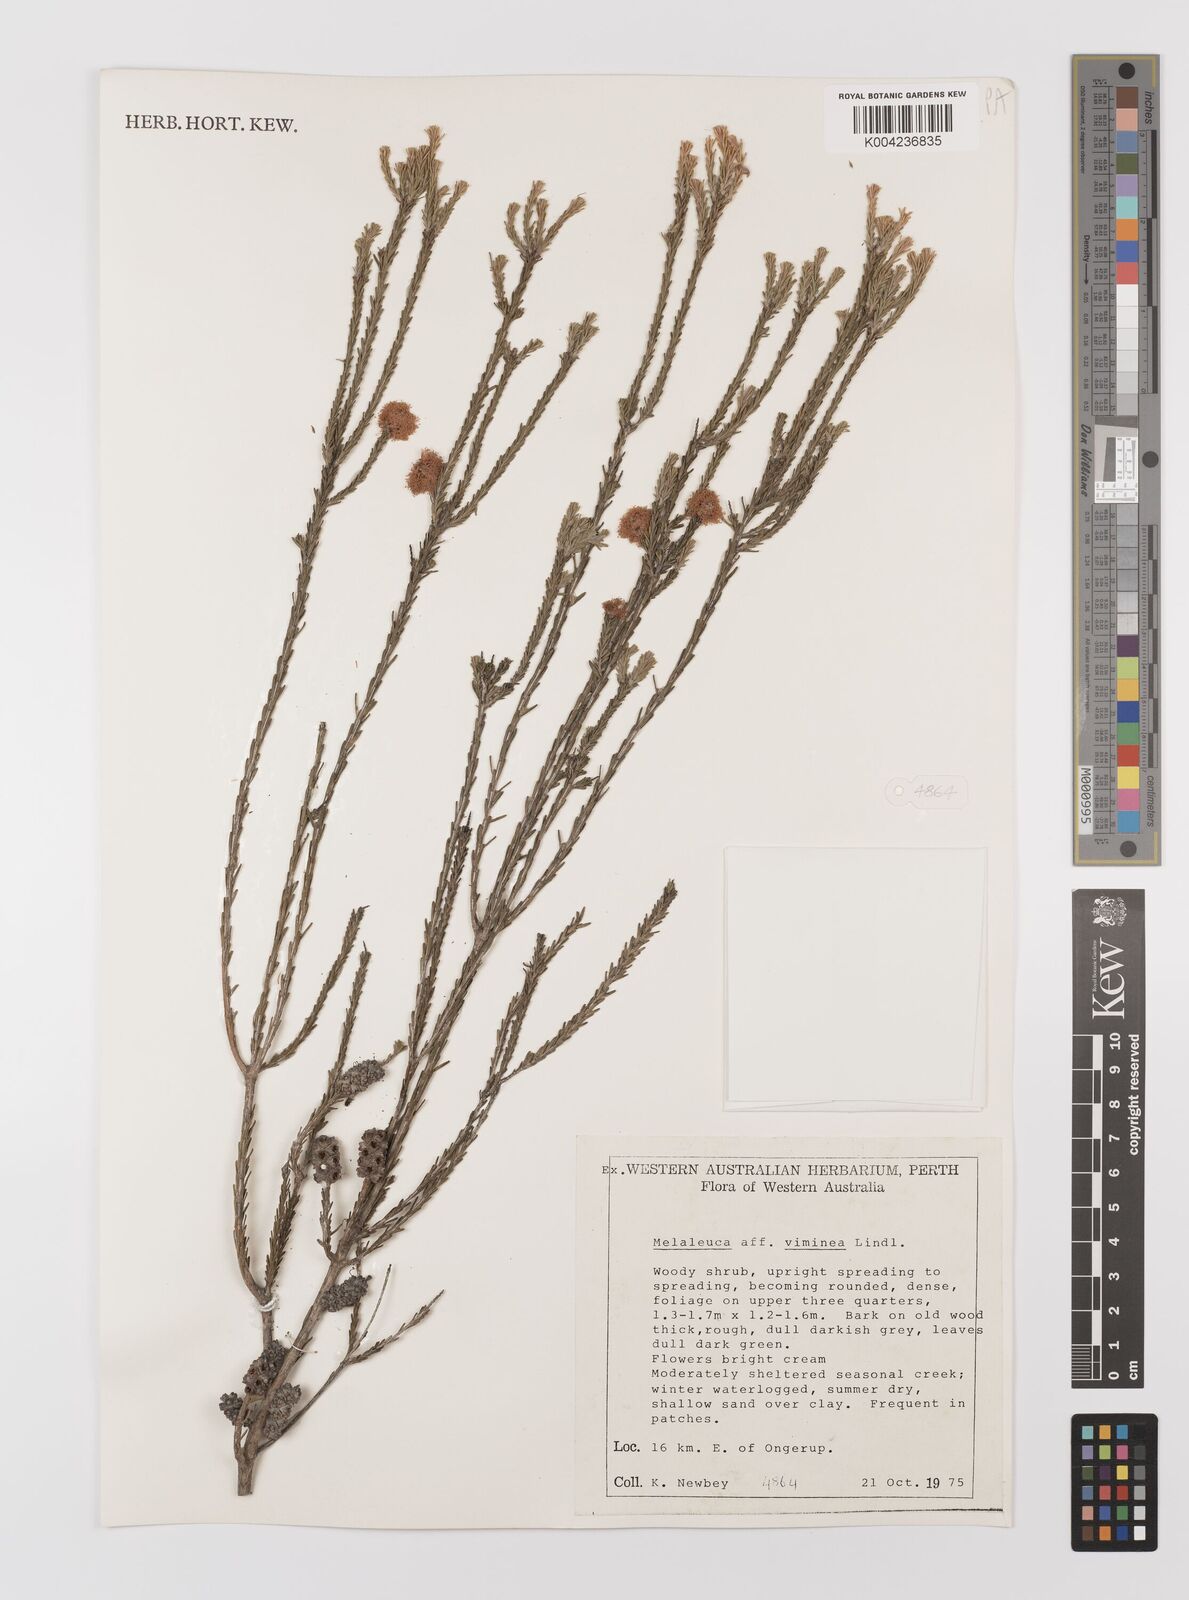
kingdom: Plantae
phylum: Tracheophyta
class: Magnoliopsida
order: Myrtales
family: Myrtaceae
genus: Melaleuca
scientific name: Melaleuca viminea
